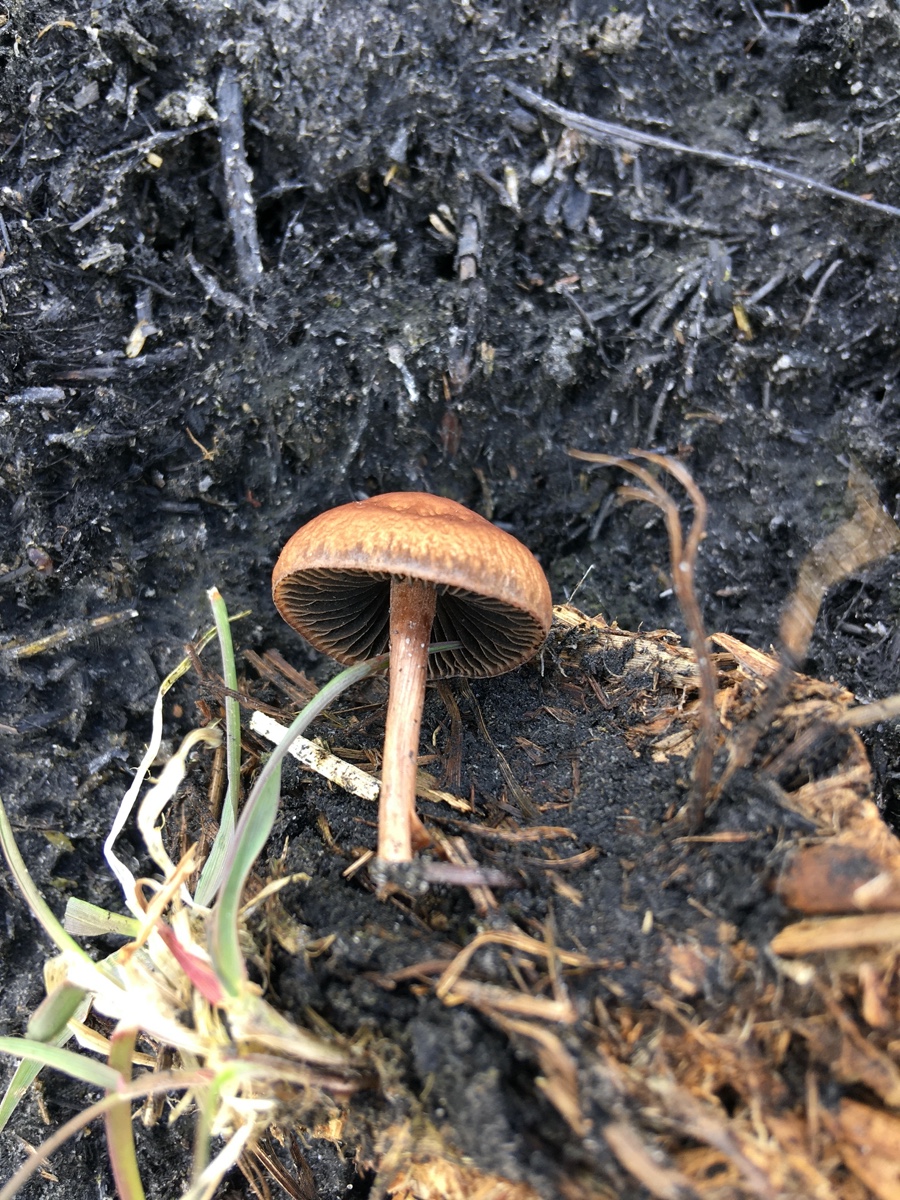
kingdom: Fungi
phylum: Basidiomycota
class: Agaricomycetes
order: Agaricales
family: Bolbitiaceae
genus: Panaeolus
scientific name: Panaeolus fimicola
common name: tidlig glanshat
